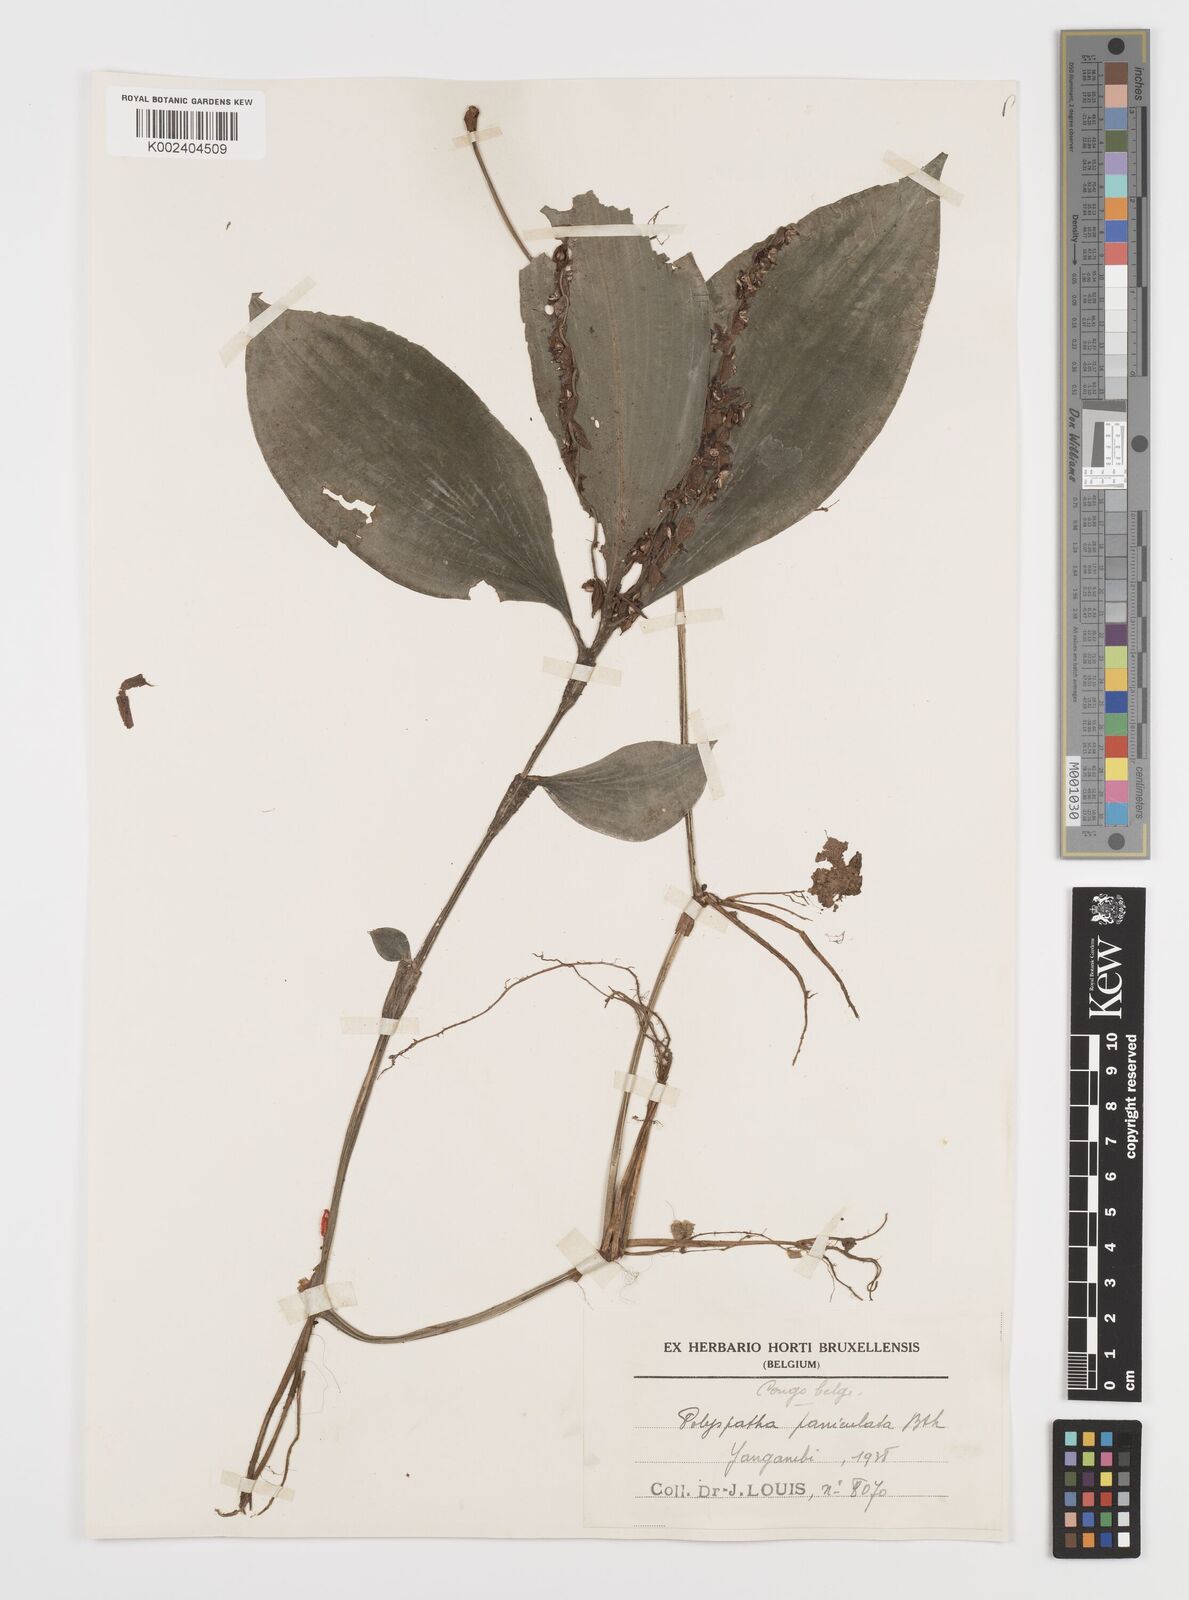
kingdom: Plantae
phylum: Tracheophyta
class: Liliopsida
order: Commelinales
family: Commelinaceae
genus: Polyspatha
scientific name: Polyspatha paniculata
